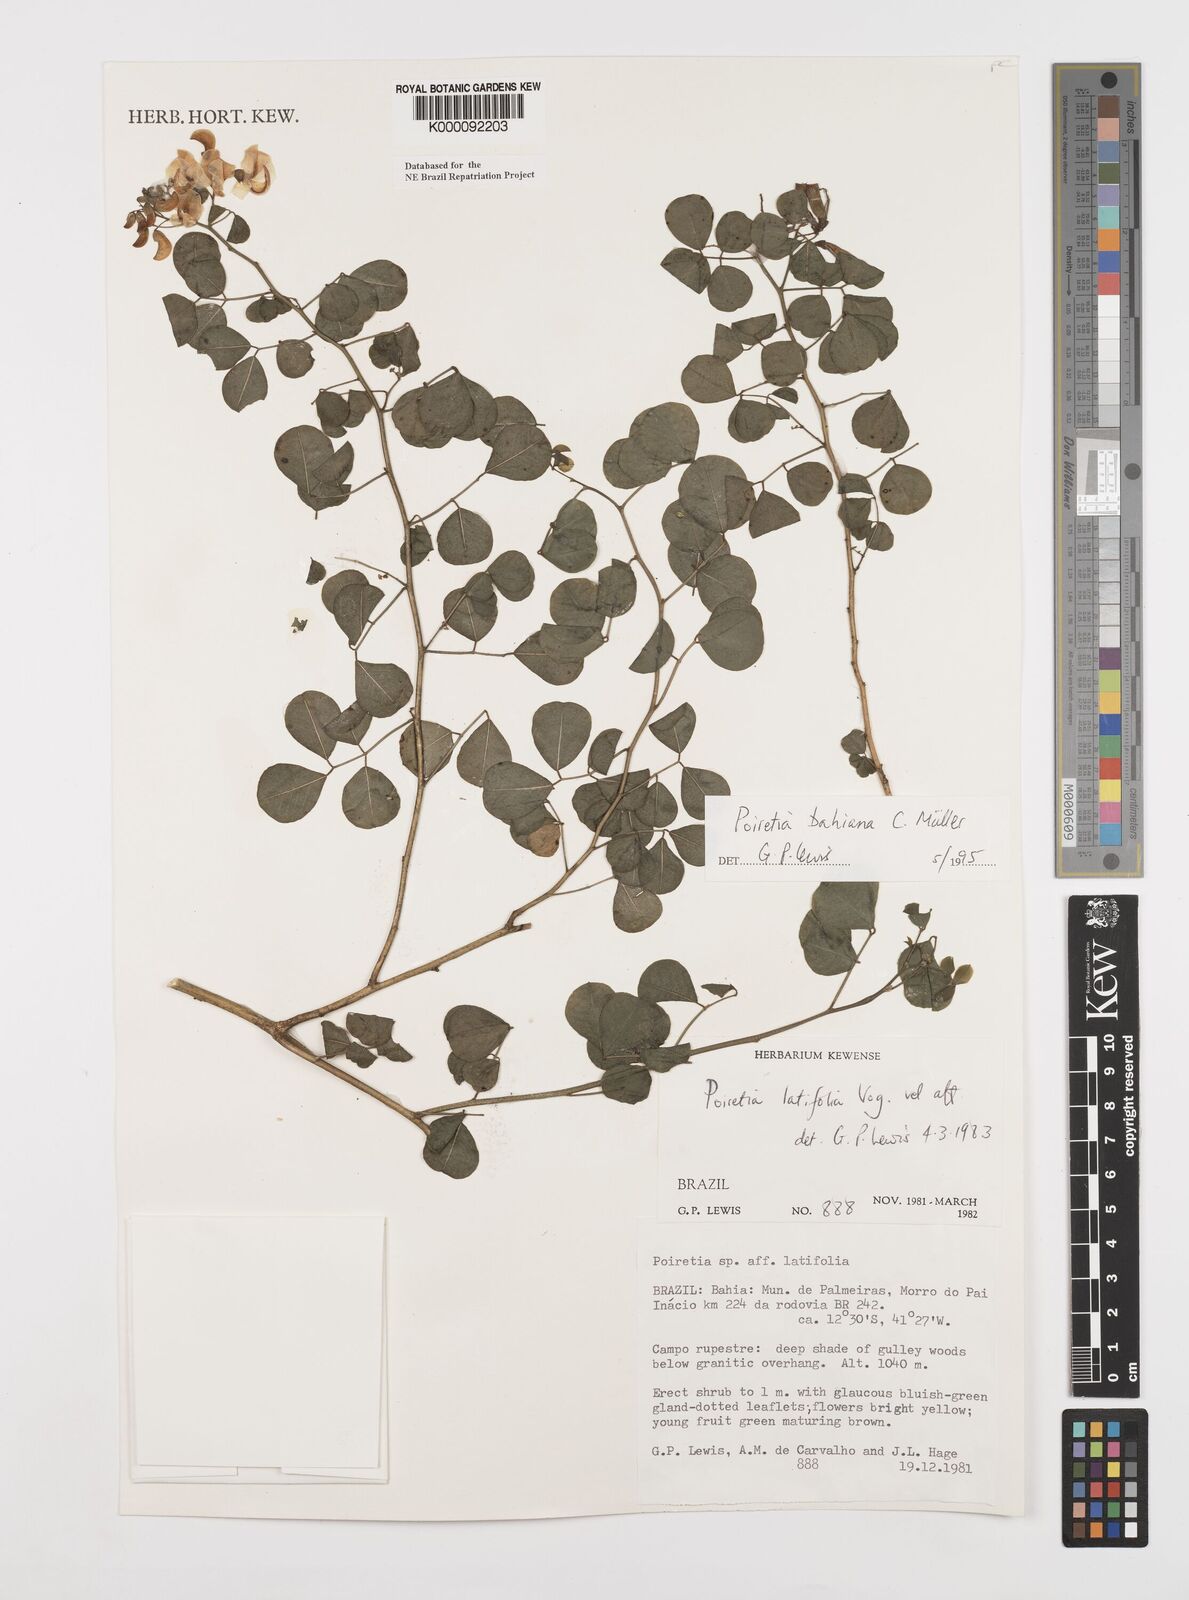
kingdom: Plantae
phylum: Tracheophyta
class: Magnoliopsida
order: Fabales
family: Fabaceae
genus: Poiretia
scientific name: Poiretia
